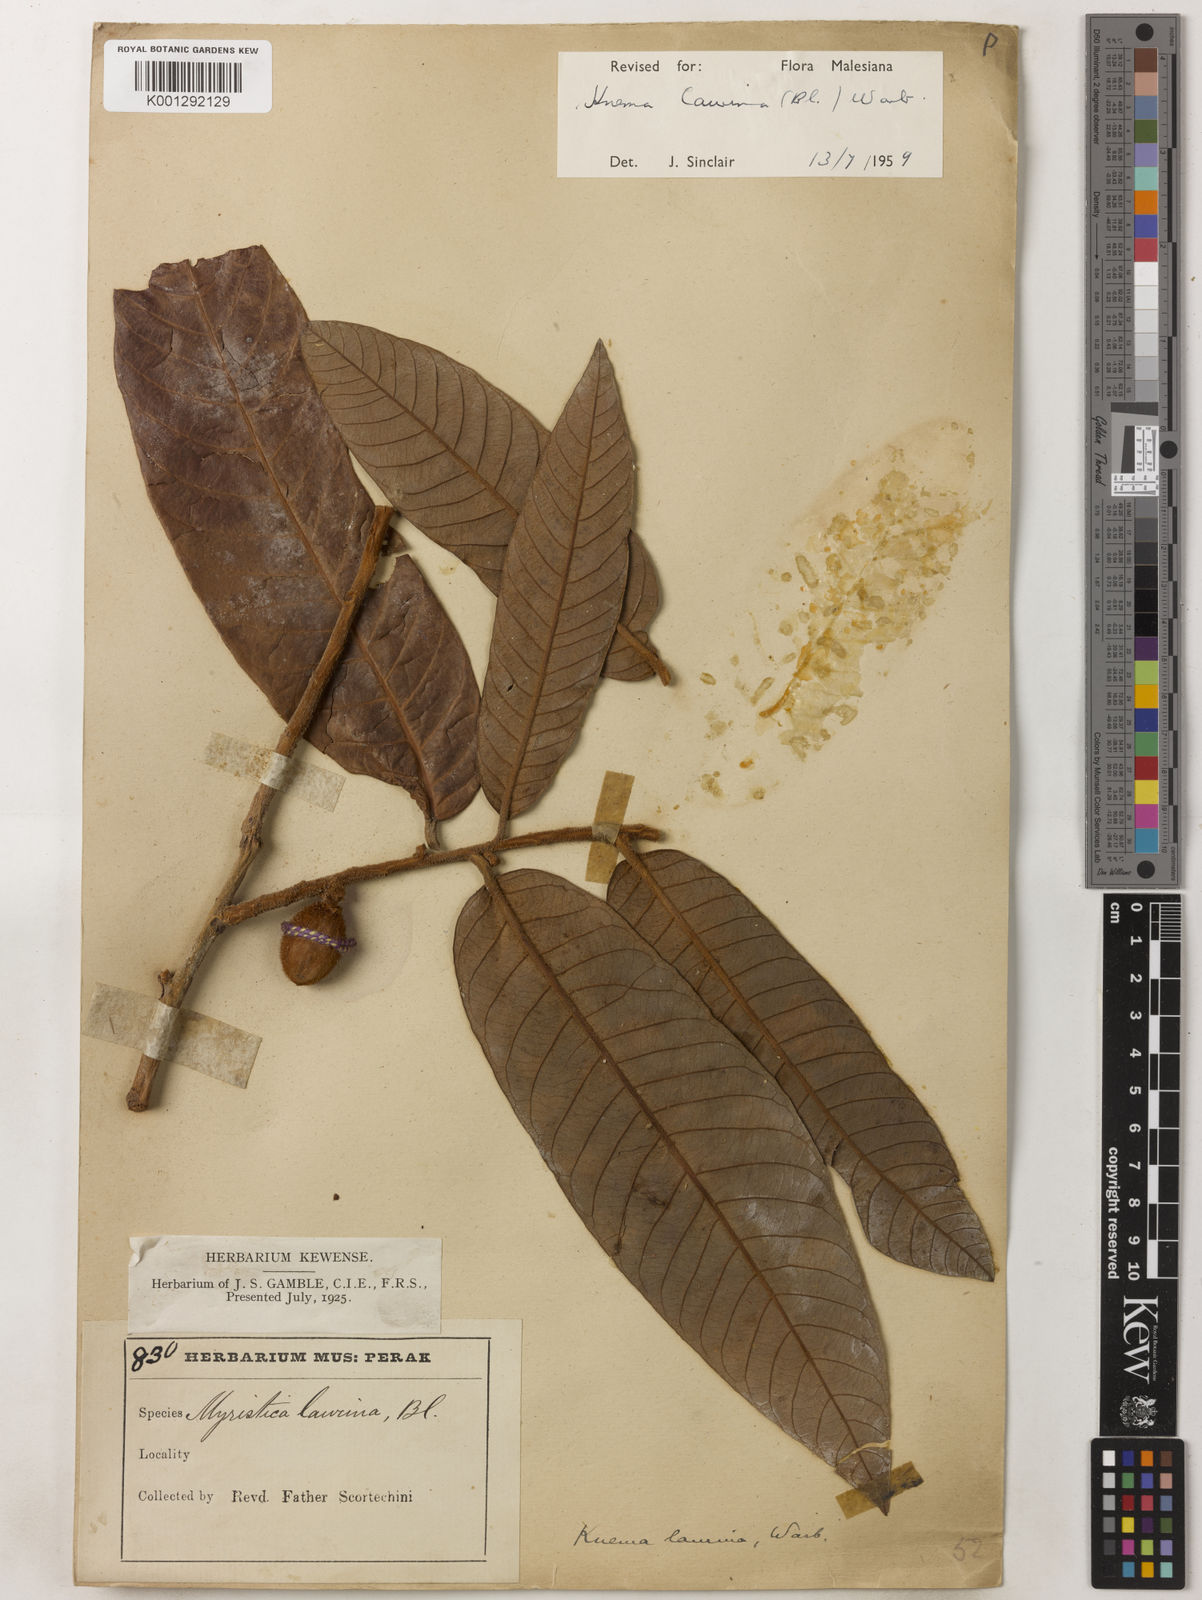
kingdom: Plantae
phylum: Tracheophyta
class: Magnoliopsida
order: Magnoliales
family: Myristicaceae
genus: Knema
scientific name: Knema laurina
